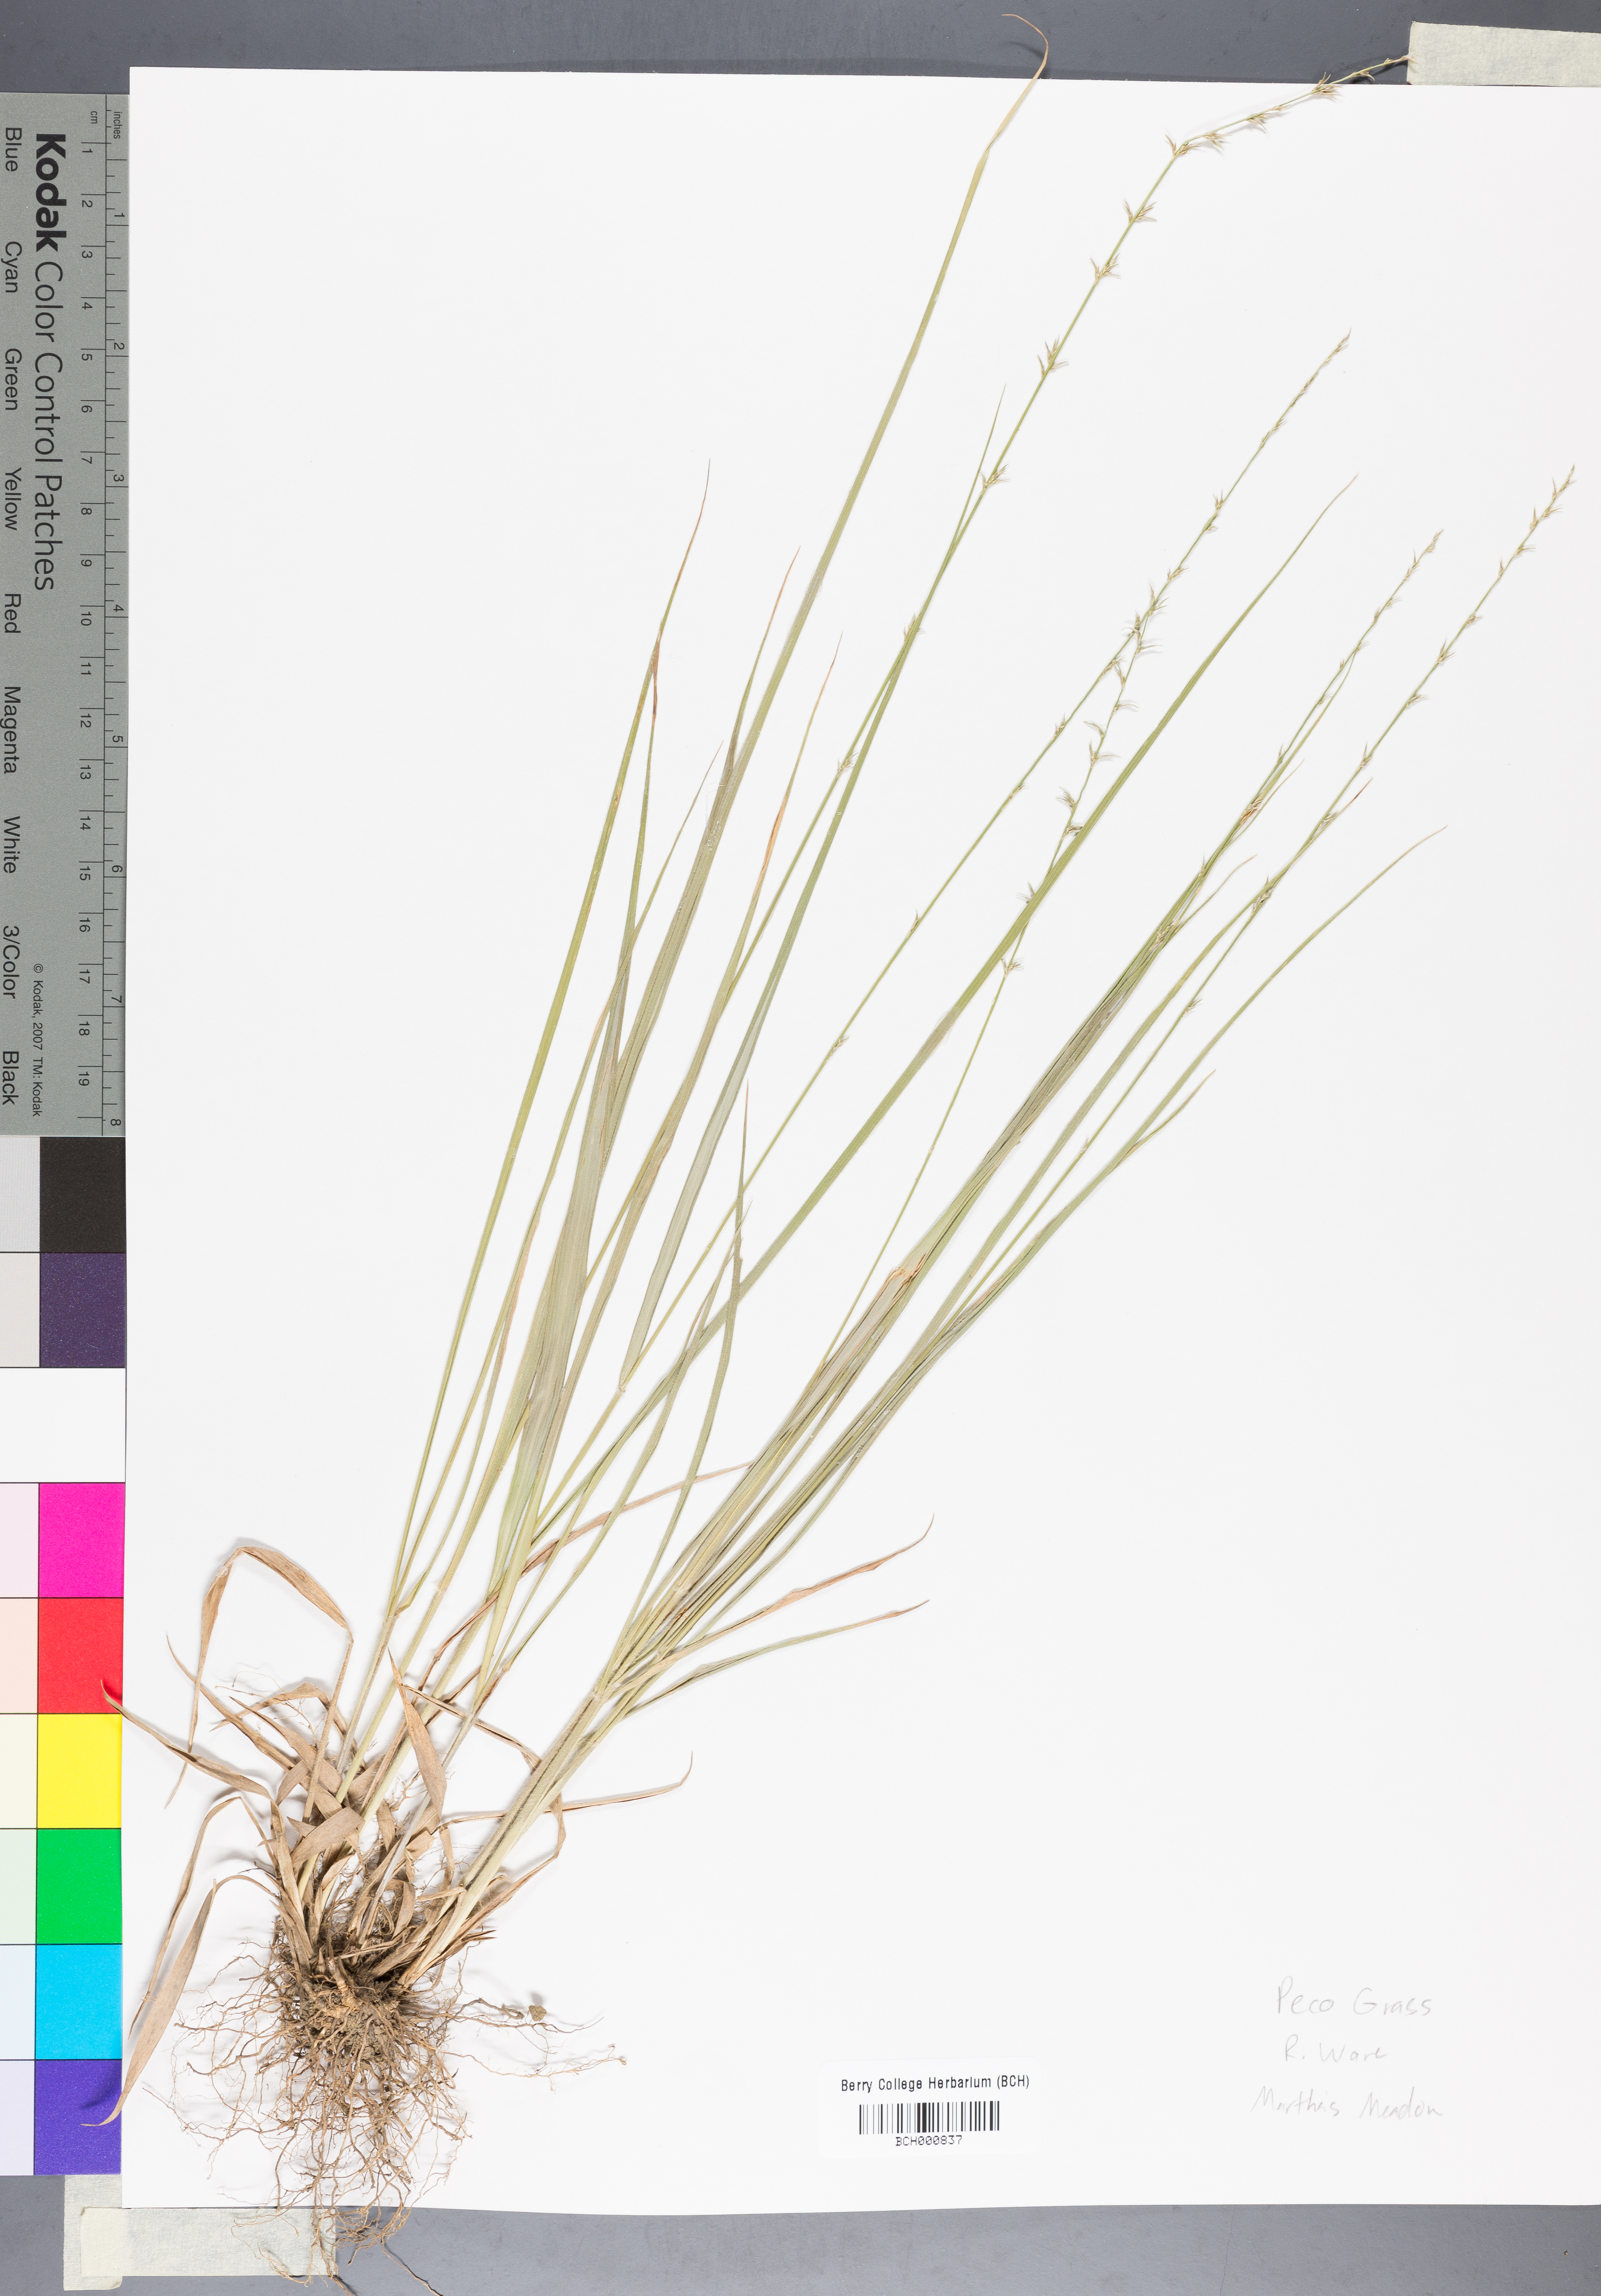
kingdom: Plantae
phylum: Tracheophyta
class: Magnoliopsida
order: Lamiales
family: Acanthaceae
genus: Adhatoda
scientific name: Adhatoda
